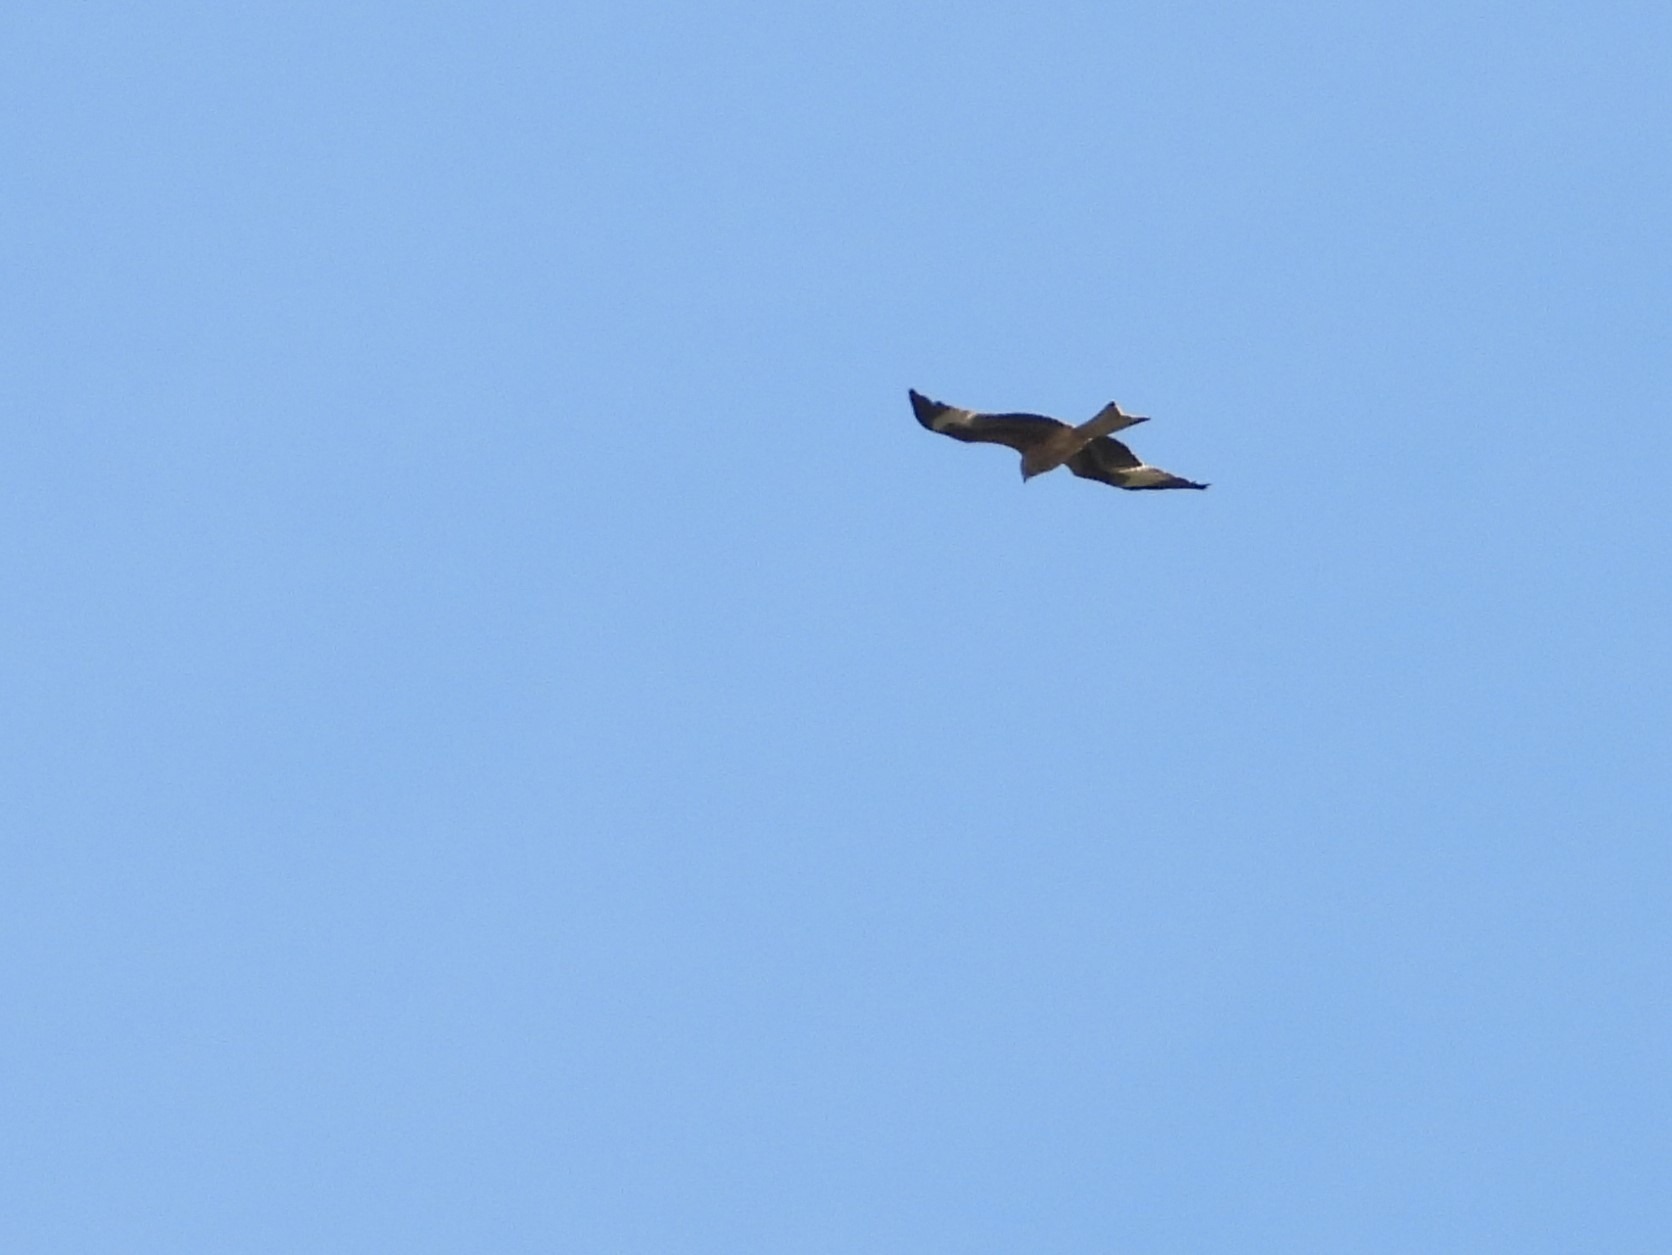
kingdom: Animalia
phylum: Chordata
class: Aves
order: Accipitriformes
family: Accipitridae
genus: Milvus
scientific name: Milvus milvus
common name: Rød glente
